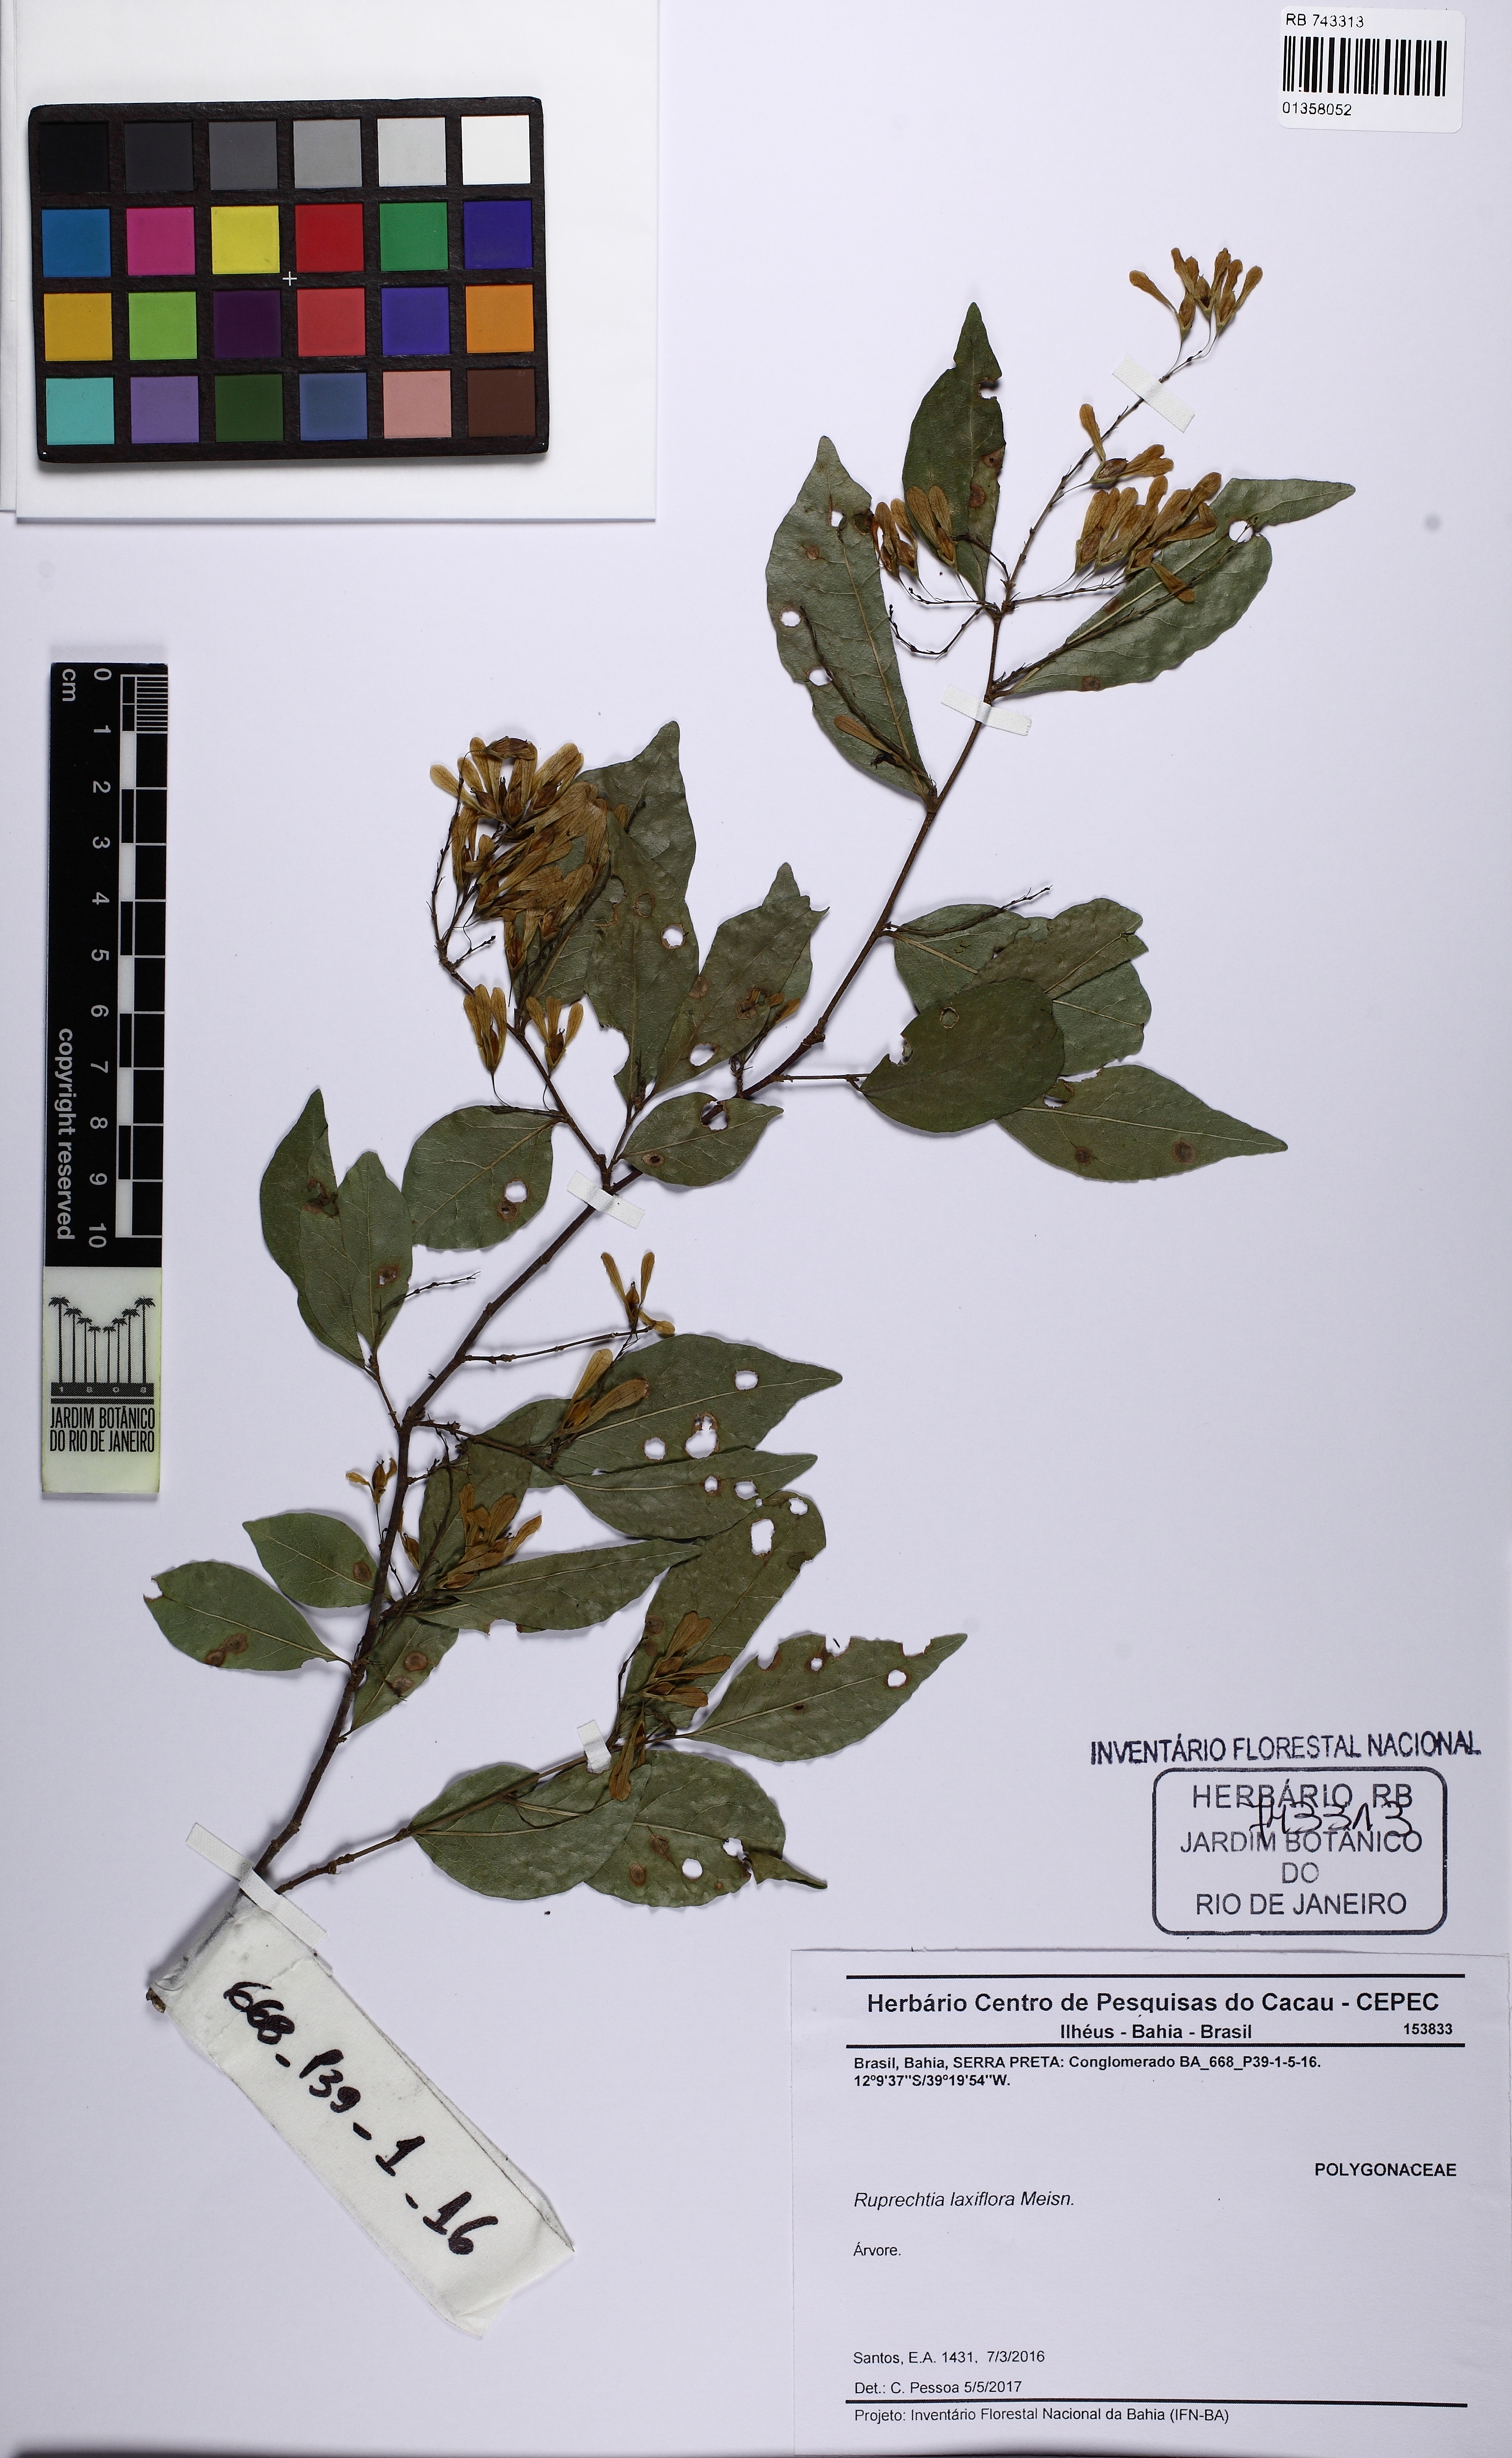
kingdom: Plantae
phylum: Tracheophyta
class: Magnoliopsida
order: Caryophyllales
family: Polygonaceae
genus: Ruprechtia
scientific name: Ruprechtia laxiflora
